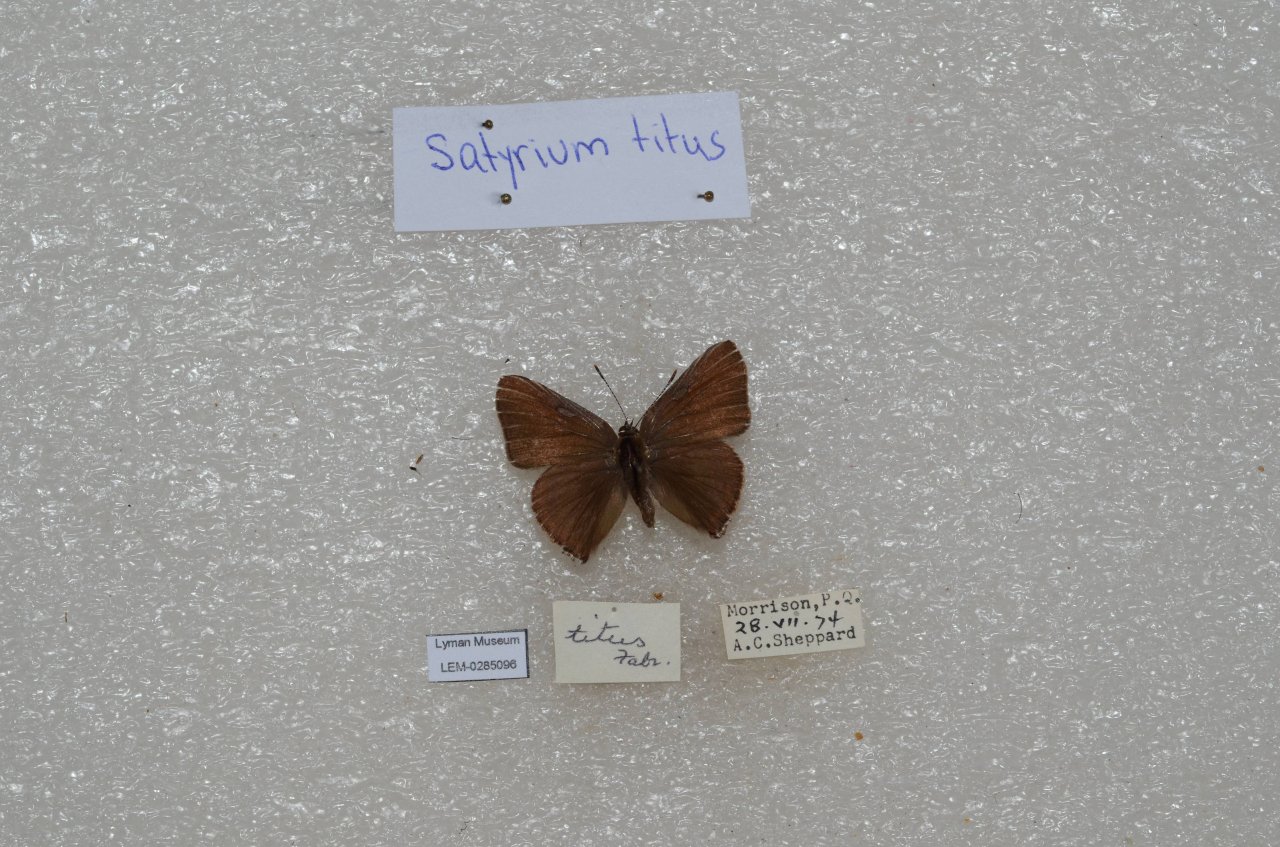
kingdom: Animalia
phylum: Arthropoda
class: Insecta
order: Lepidoptera
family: Lycaenidae
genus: Harkenclenus
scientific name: Harkenclenus titus
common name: Coral Hairstreak
